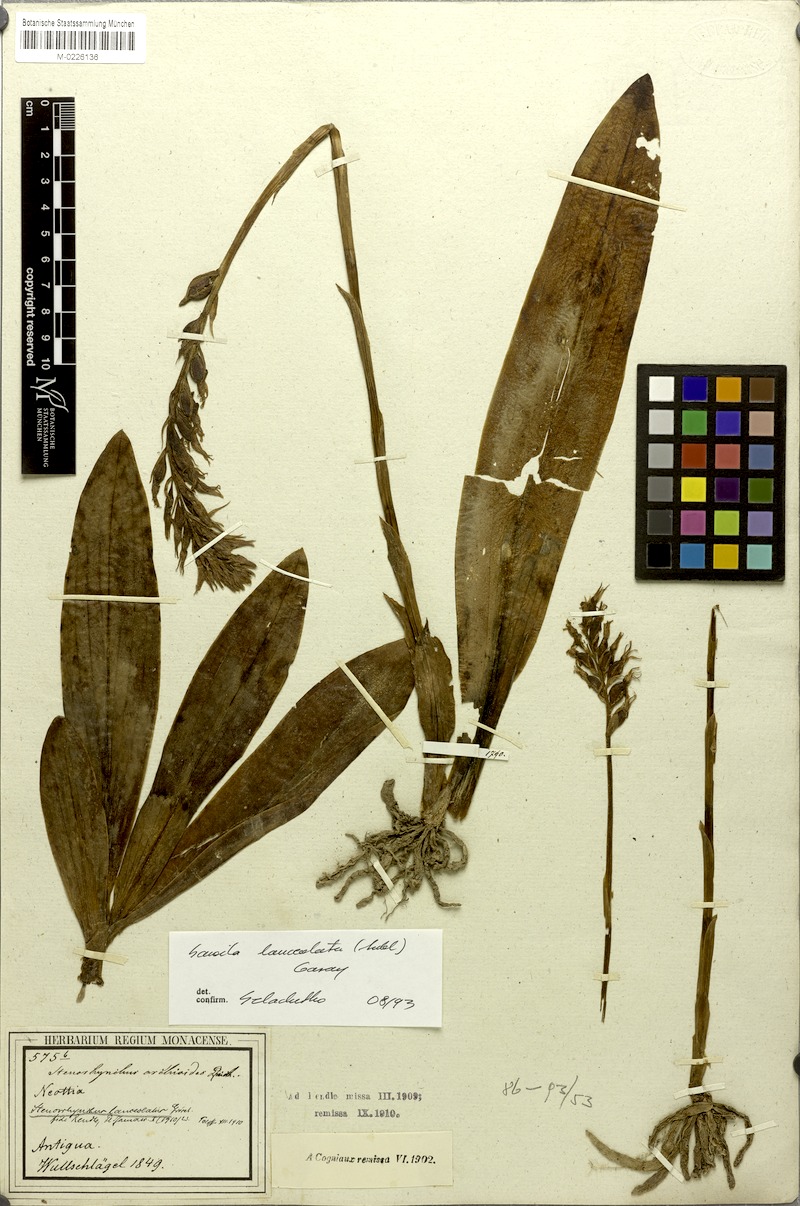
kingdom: Plantae
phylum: Tracheophyta
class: Liliopsida
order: Asparagales
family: Orchidaceae
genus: Sacoila
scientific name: Sacoila lanceolata
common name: Leafless beaked ladiestresses
